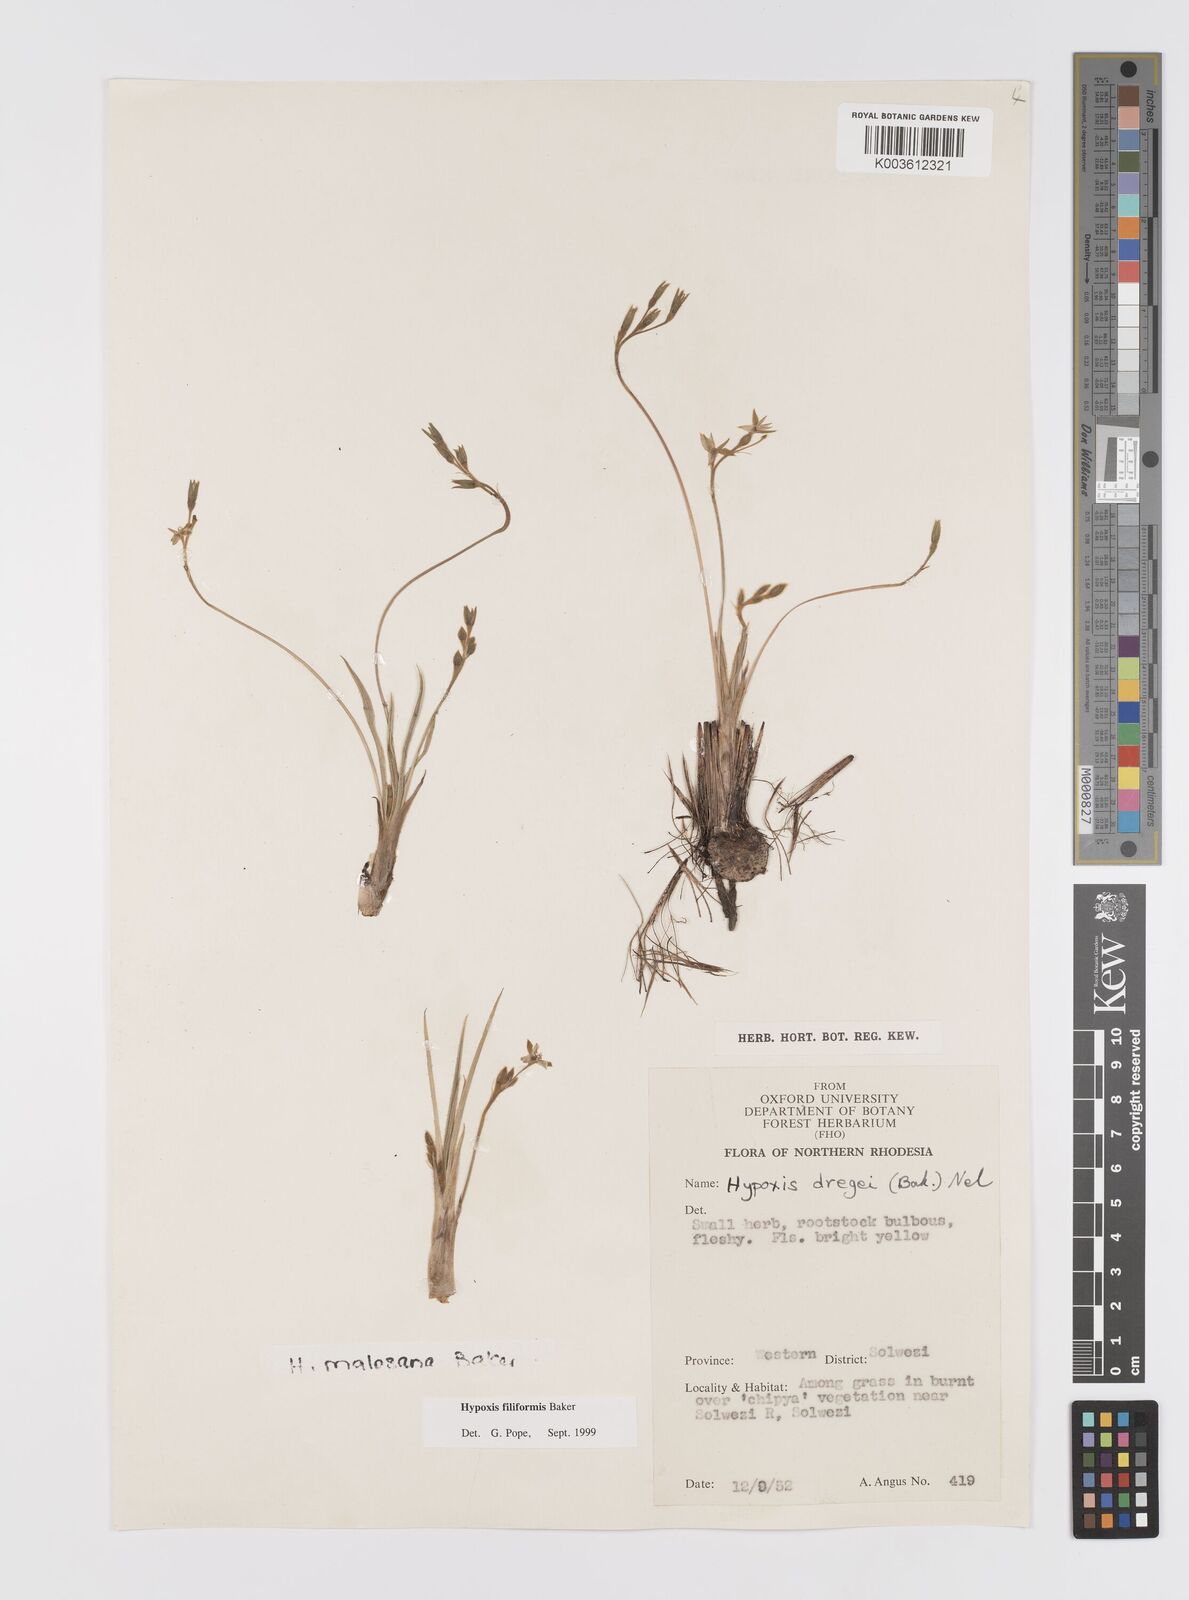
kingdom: Plantae
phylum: Tracheophyta
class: Liliopsida
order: Asparagales
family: Hypoxidaceae
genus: Hypoxis
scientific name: Hypoxis filiformis
